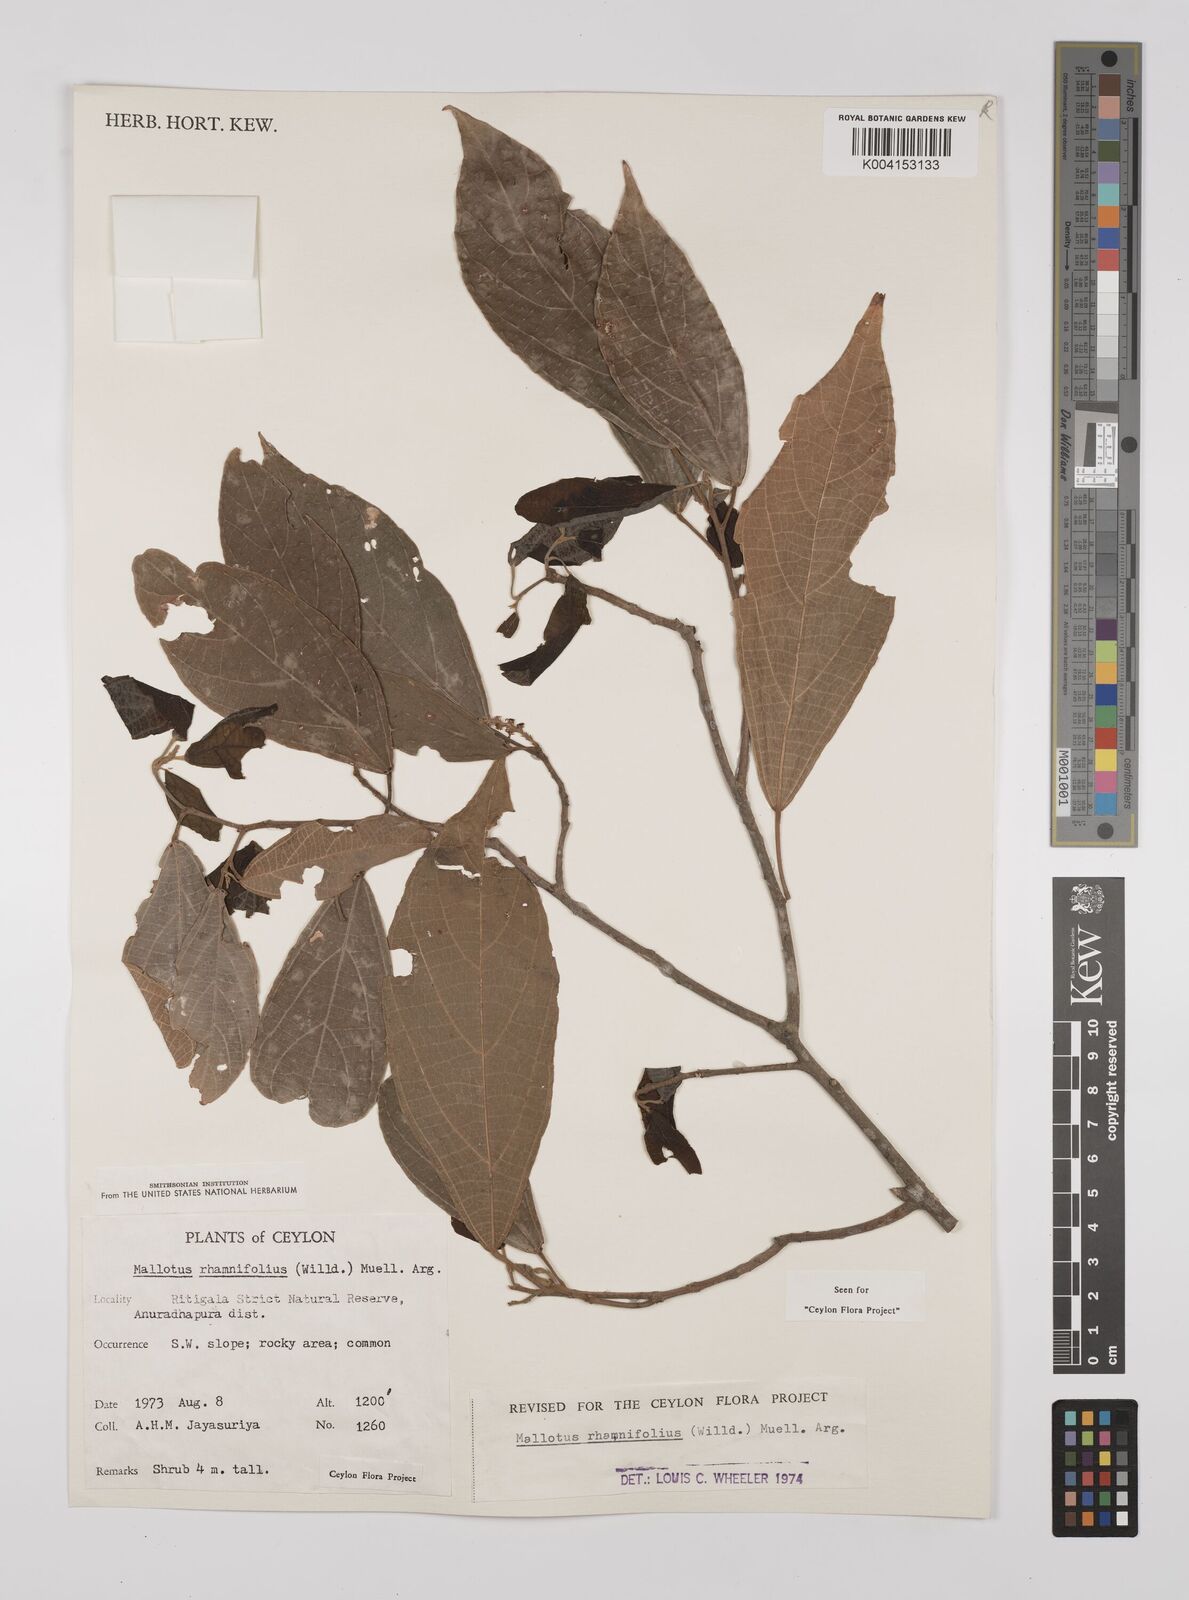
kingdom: Plantae
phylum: Tracheophyta
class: Magnoliopsida
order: Malpighiales
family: Euphorbiaceae
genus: Mallotus
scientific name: Mallotus rhamnifolius
